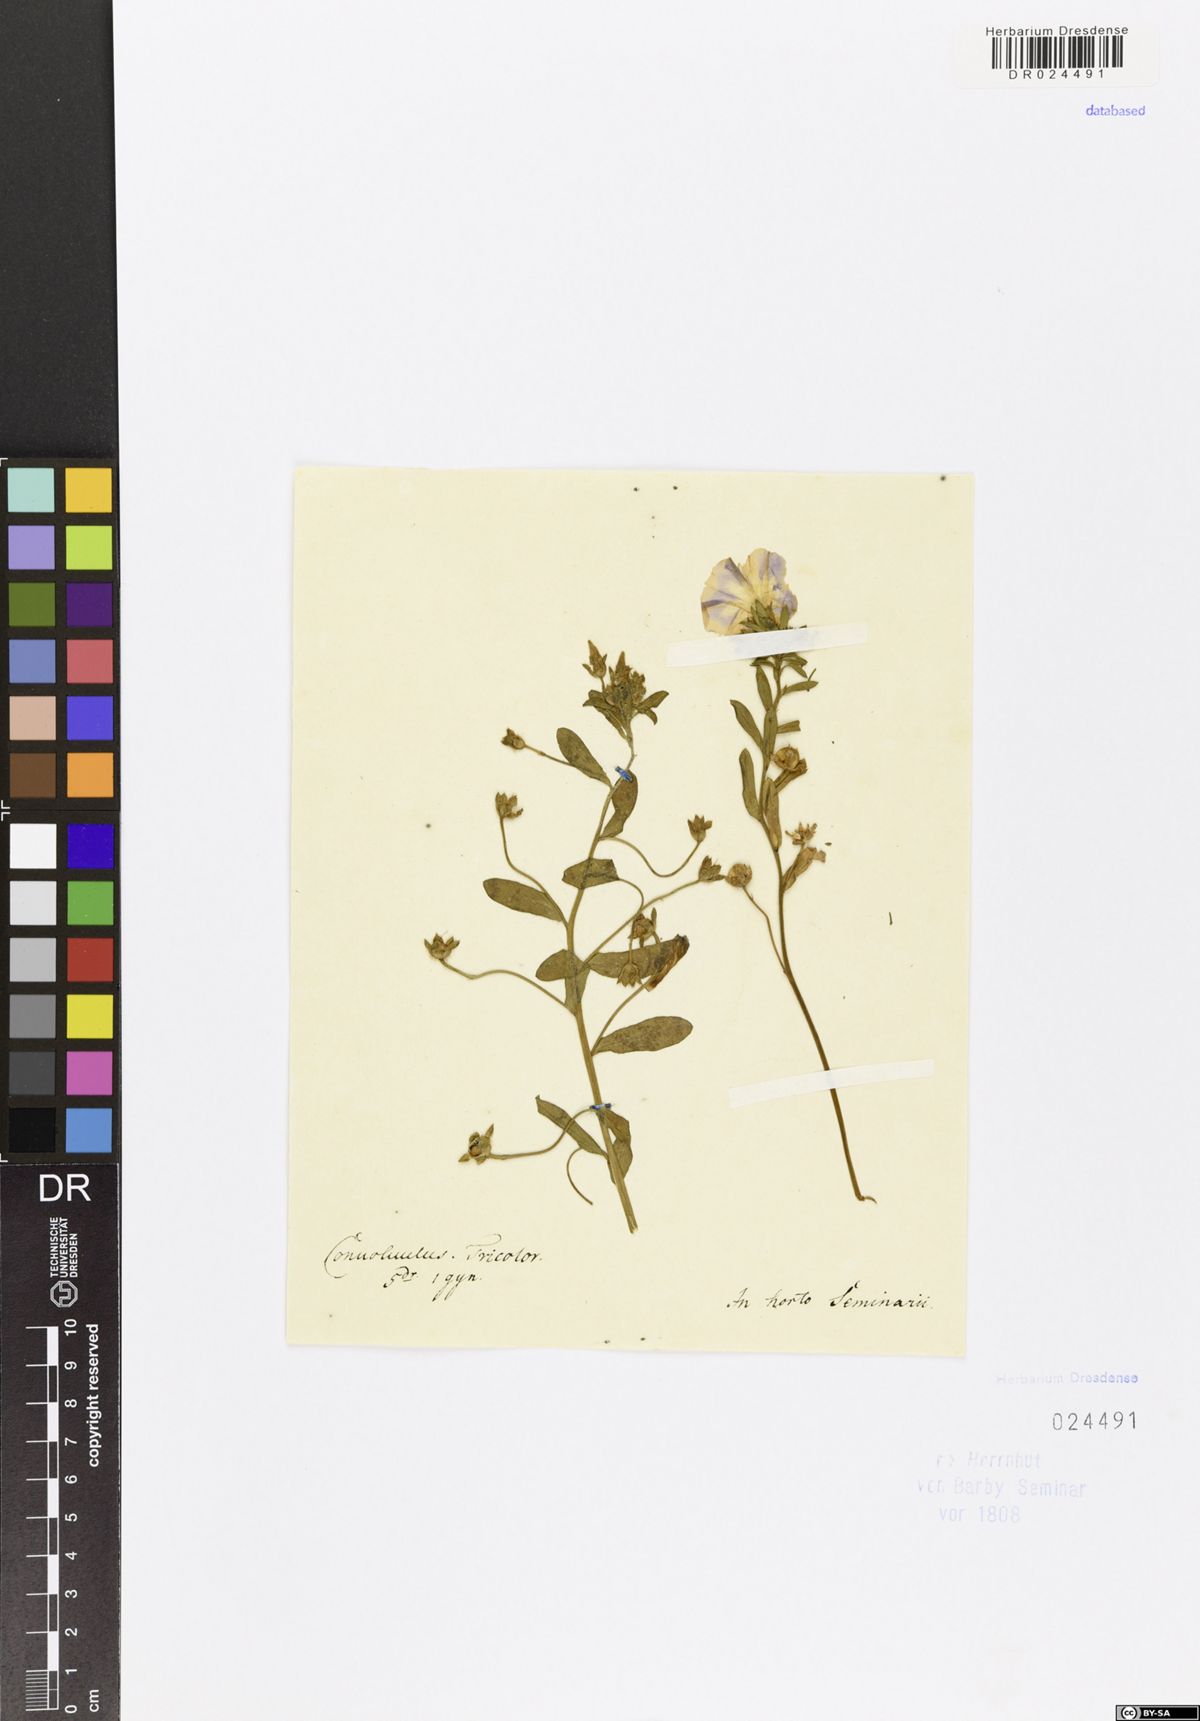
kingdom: Plantae
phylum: Tracheophyta
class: Magnoliopsida
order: Solanales
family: Convolvulaceae
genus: Convolvulus
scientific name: Convolvulus tricolor
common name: Dwarf morning-glory
